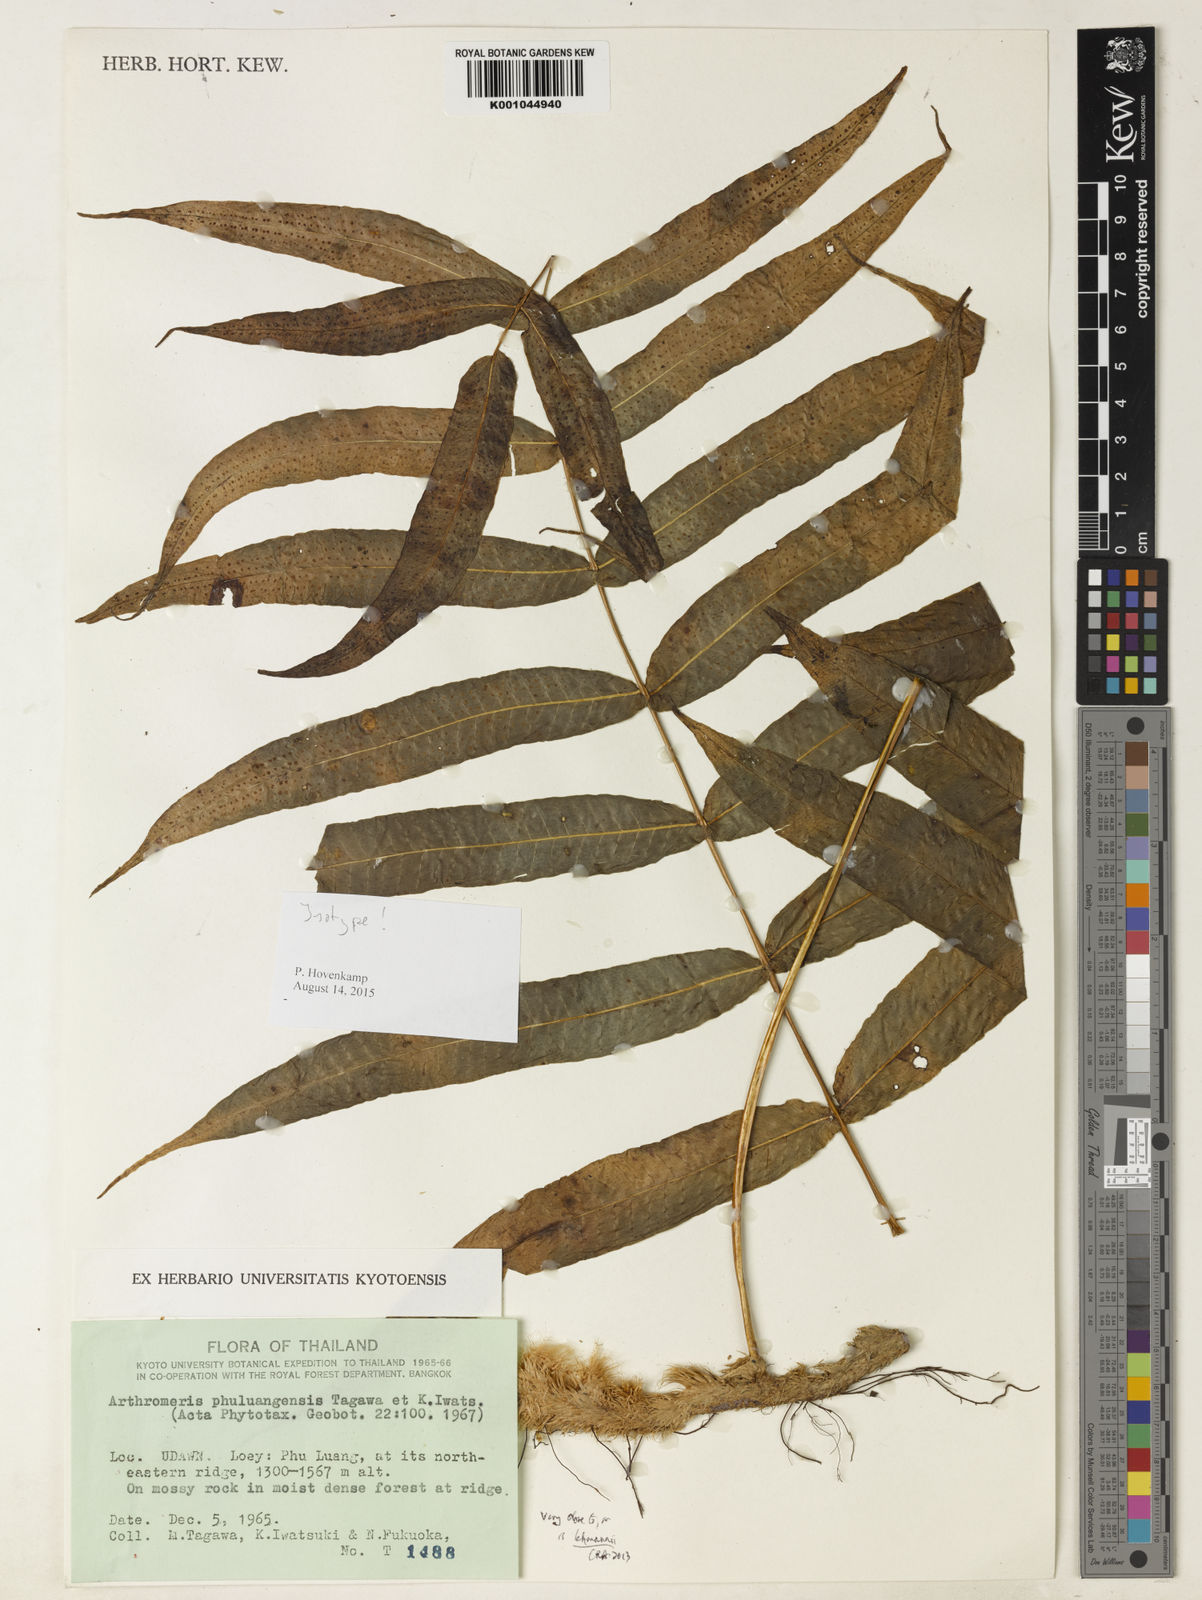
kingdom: Plantae
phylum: Tracheophyta
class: Polypodiopsida
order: Polypodiales
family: Polypodiaceae
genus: Selliguea
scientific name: Selliguea phuluangensis
